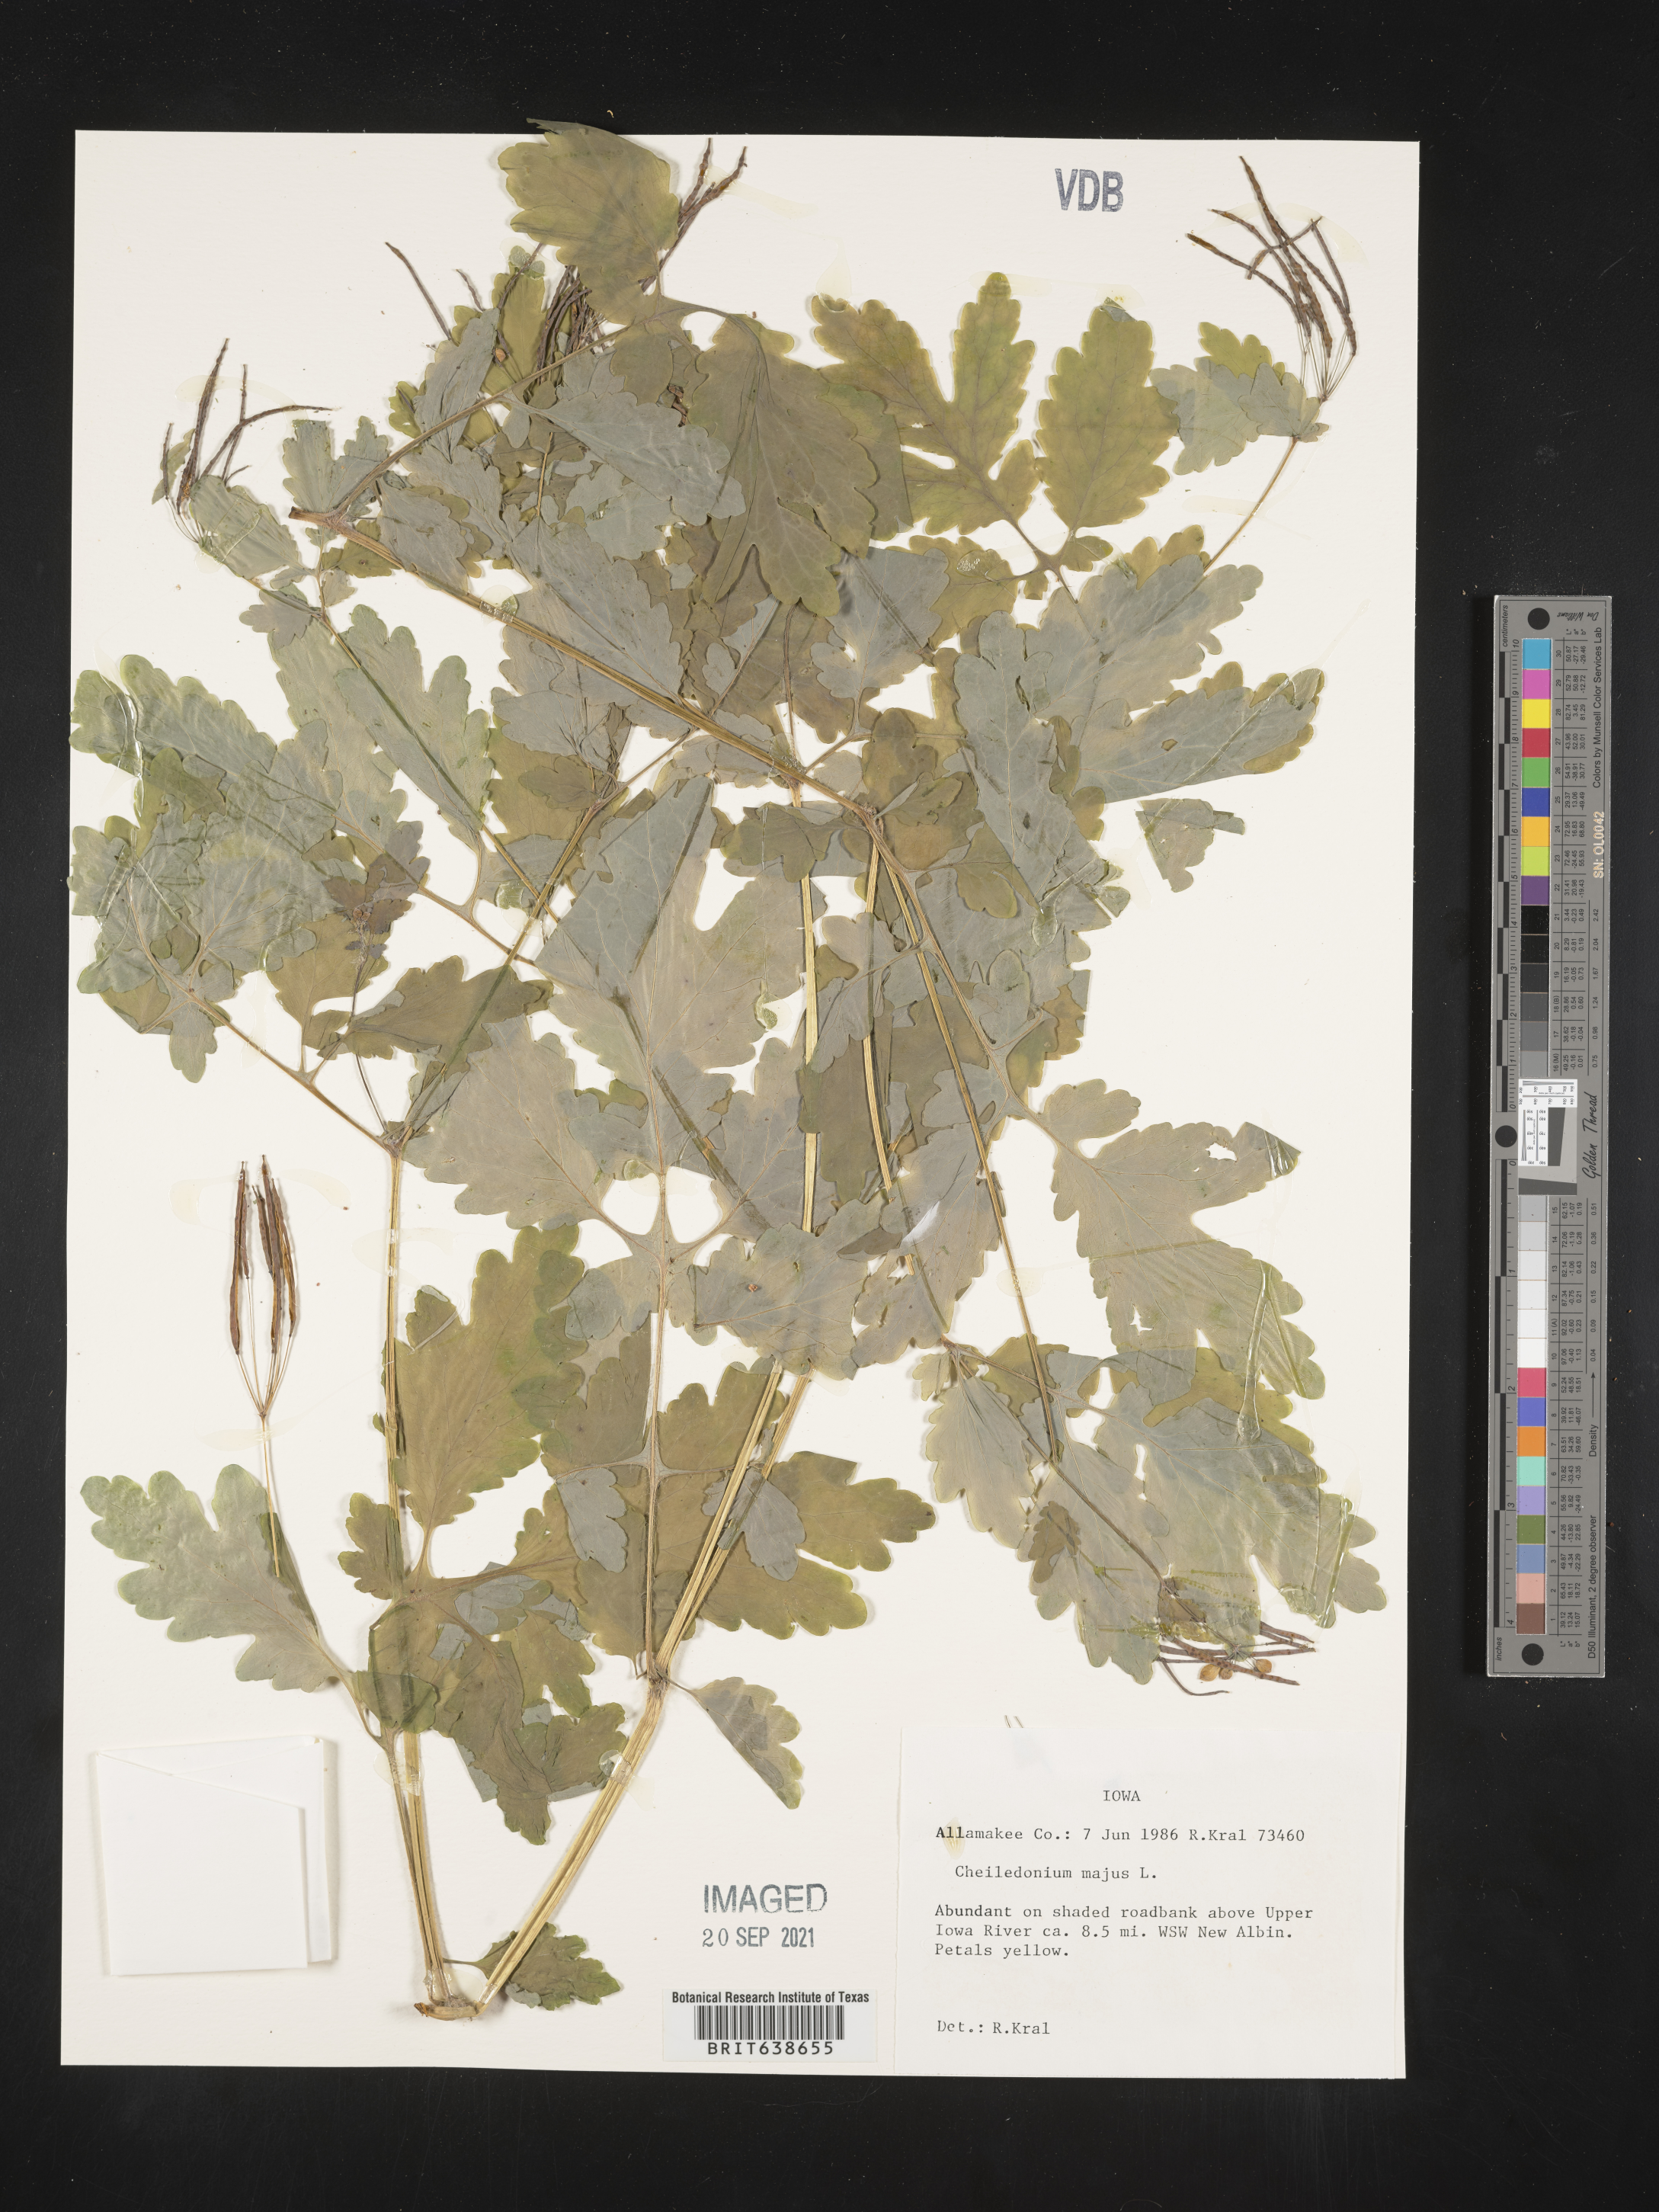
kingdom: Plantae
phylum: Tracheophyta
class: Magnoliopsida
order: Ranunculales
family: Papaveraceae
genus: Chelidonium
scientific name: Chelidonium majus
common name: Greater celandine
